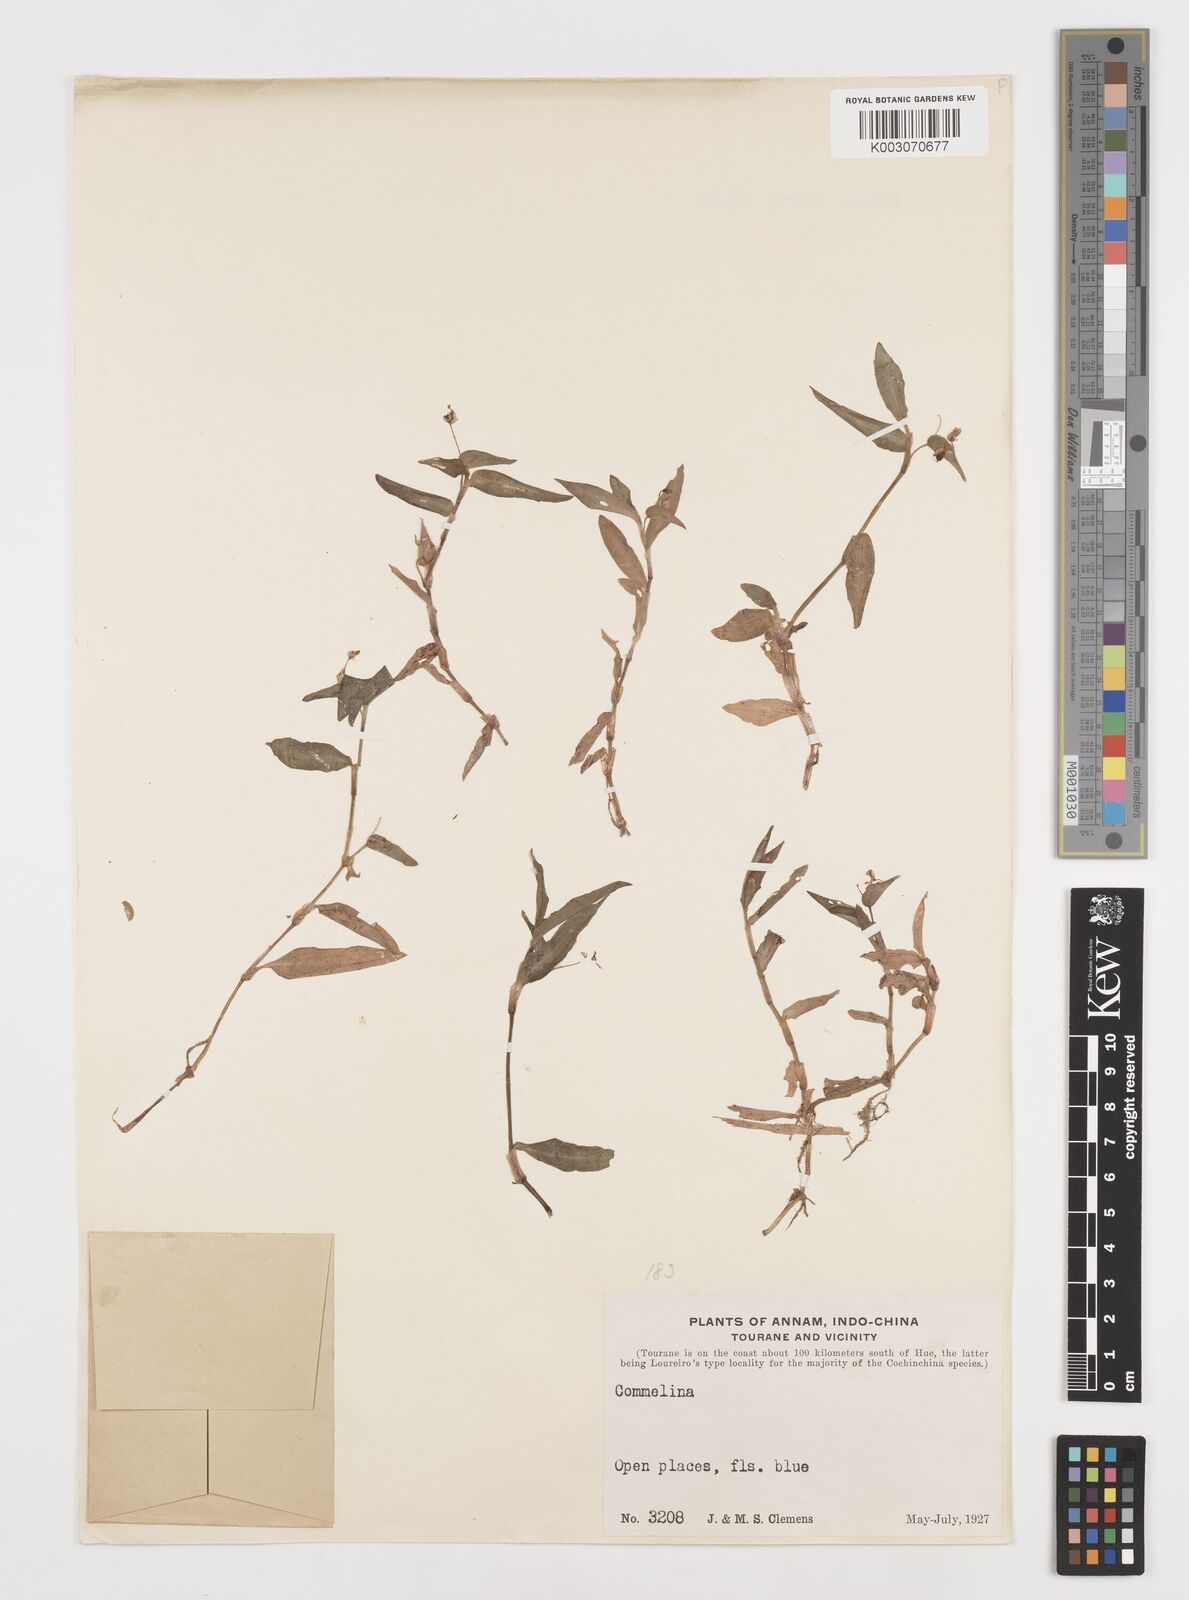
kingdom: Plantae
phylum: Tracheophyta
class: Liliopsida
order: Commelinales
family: Commelinaceae
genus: Commelina
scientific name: Commelina
